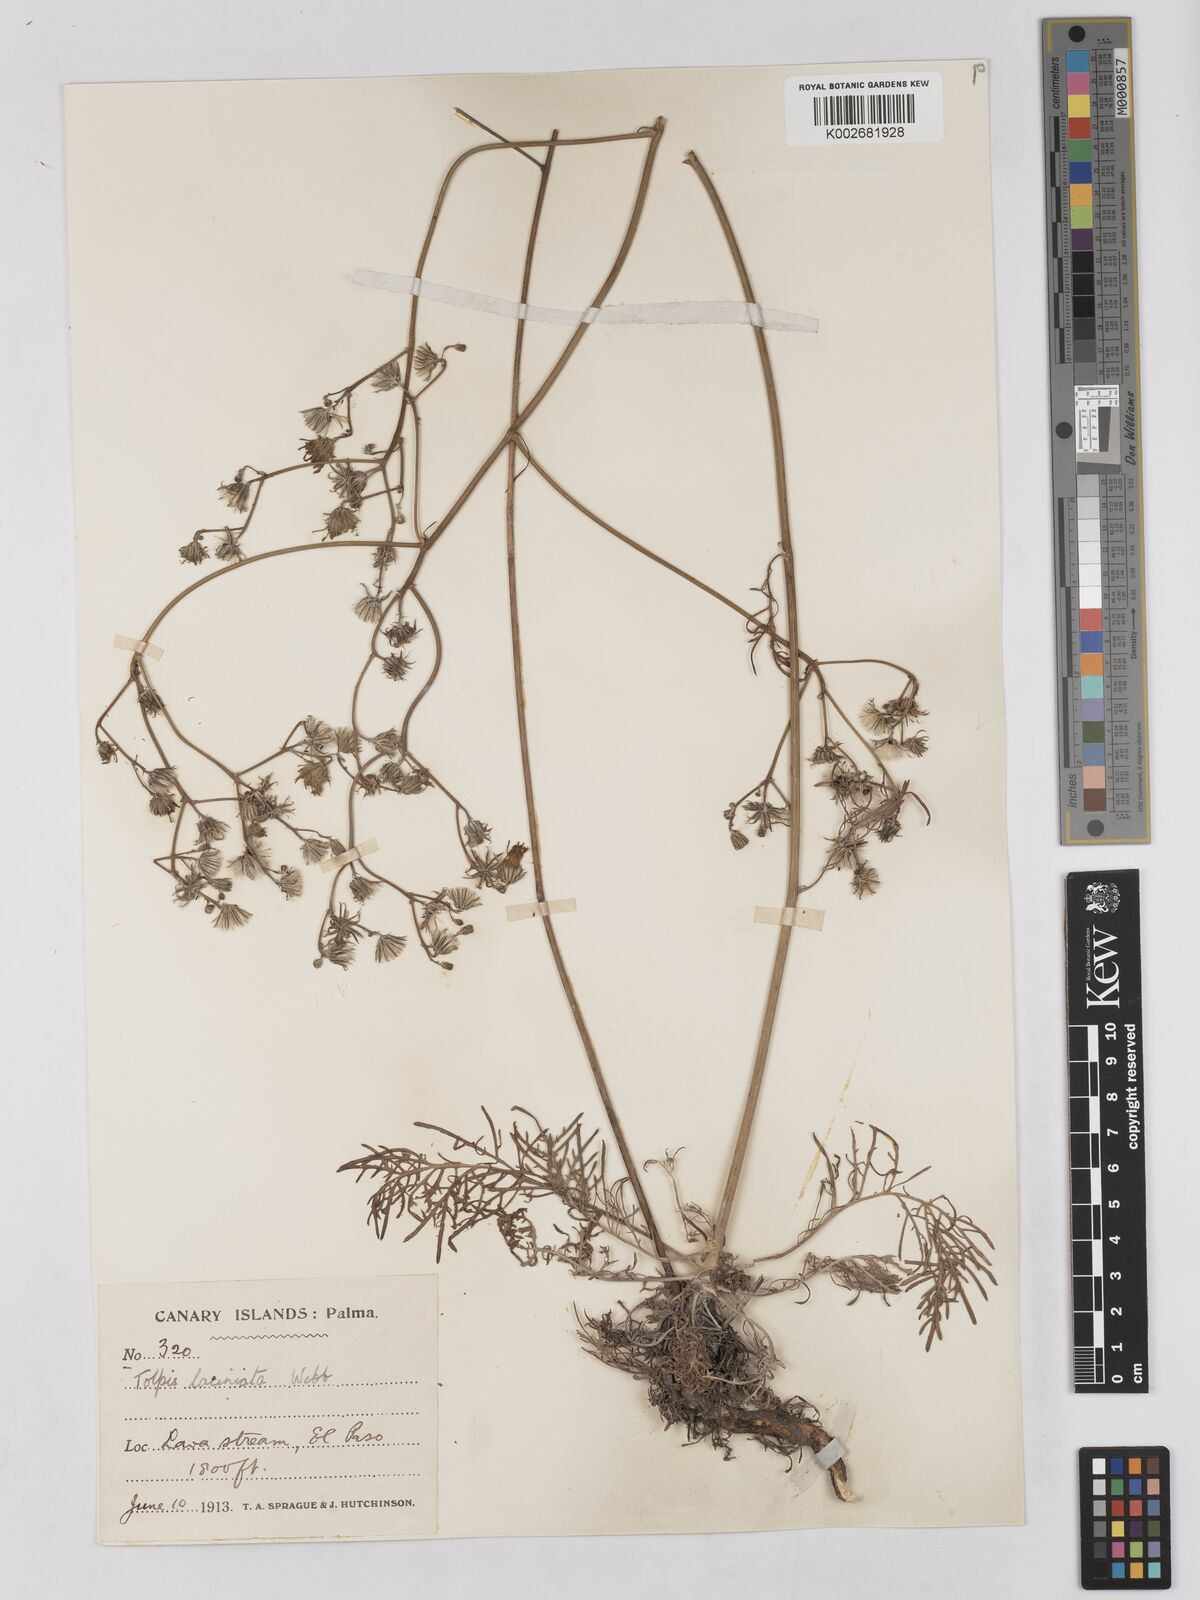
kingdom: Plantae
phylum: Tracheophyta
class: Magnoliopsida
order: Asterales
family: Asteraceae
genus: Tolpis
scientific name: Tolpis laciniata
